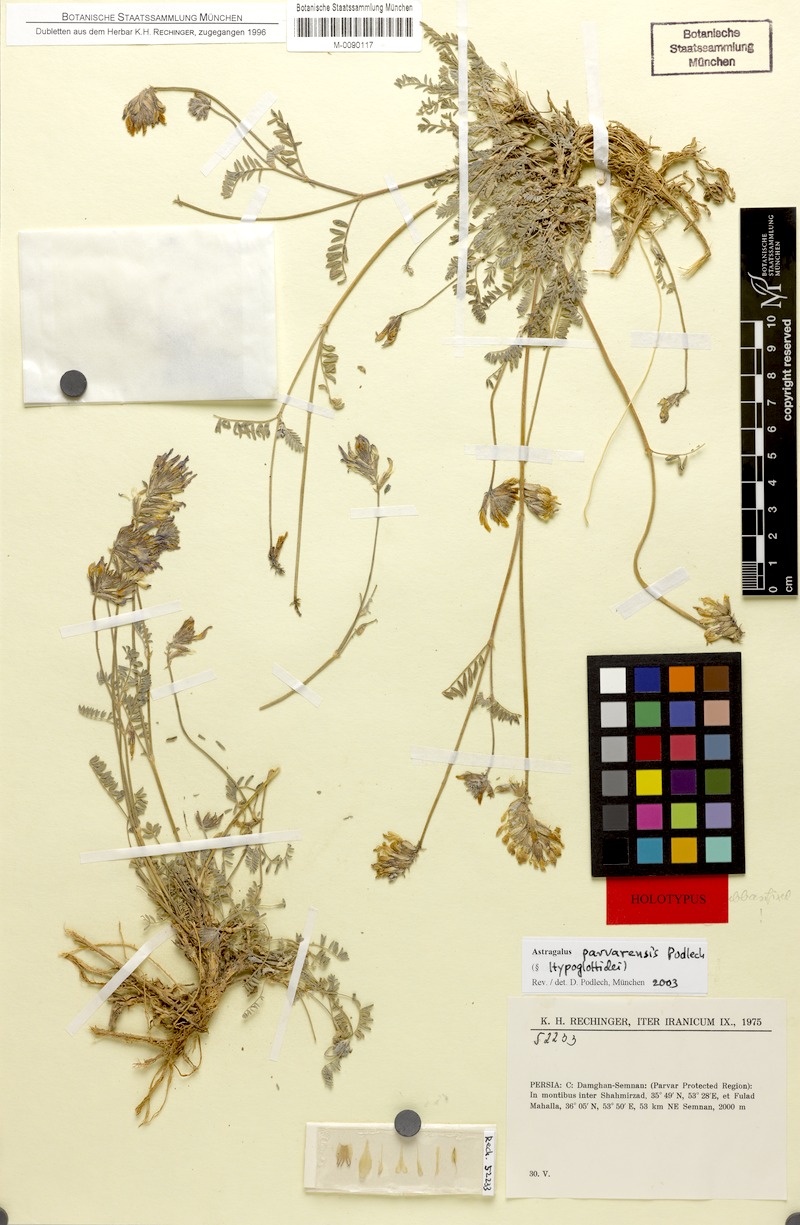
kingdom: Plantae
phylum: Tracheophyta
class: Magnoliopsida
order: Fabales
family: Fabaceae
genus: Astragalus
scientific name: Astragalus parvarensis
